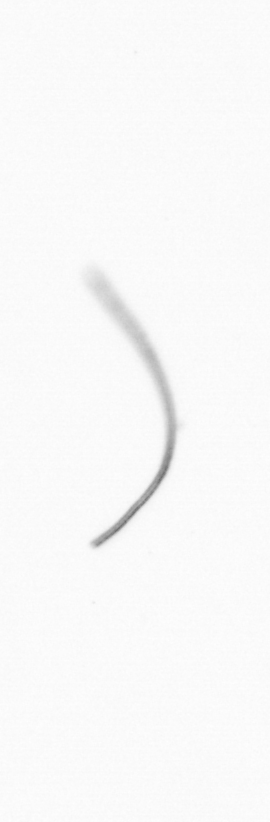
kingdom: Chromista
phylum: Ochrophyta
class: Bacillariophyceae
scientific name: Bacillariophyceae
